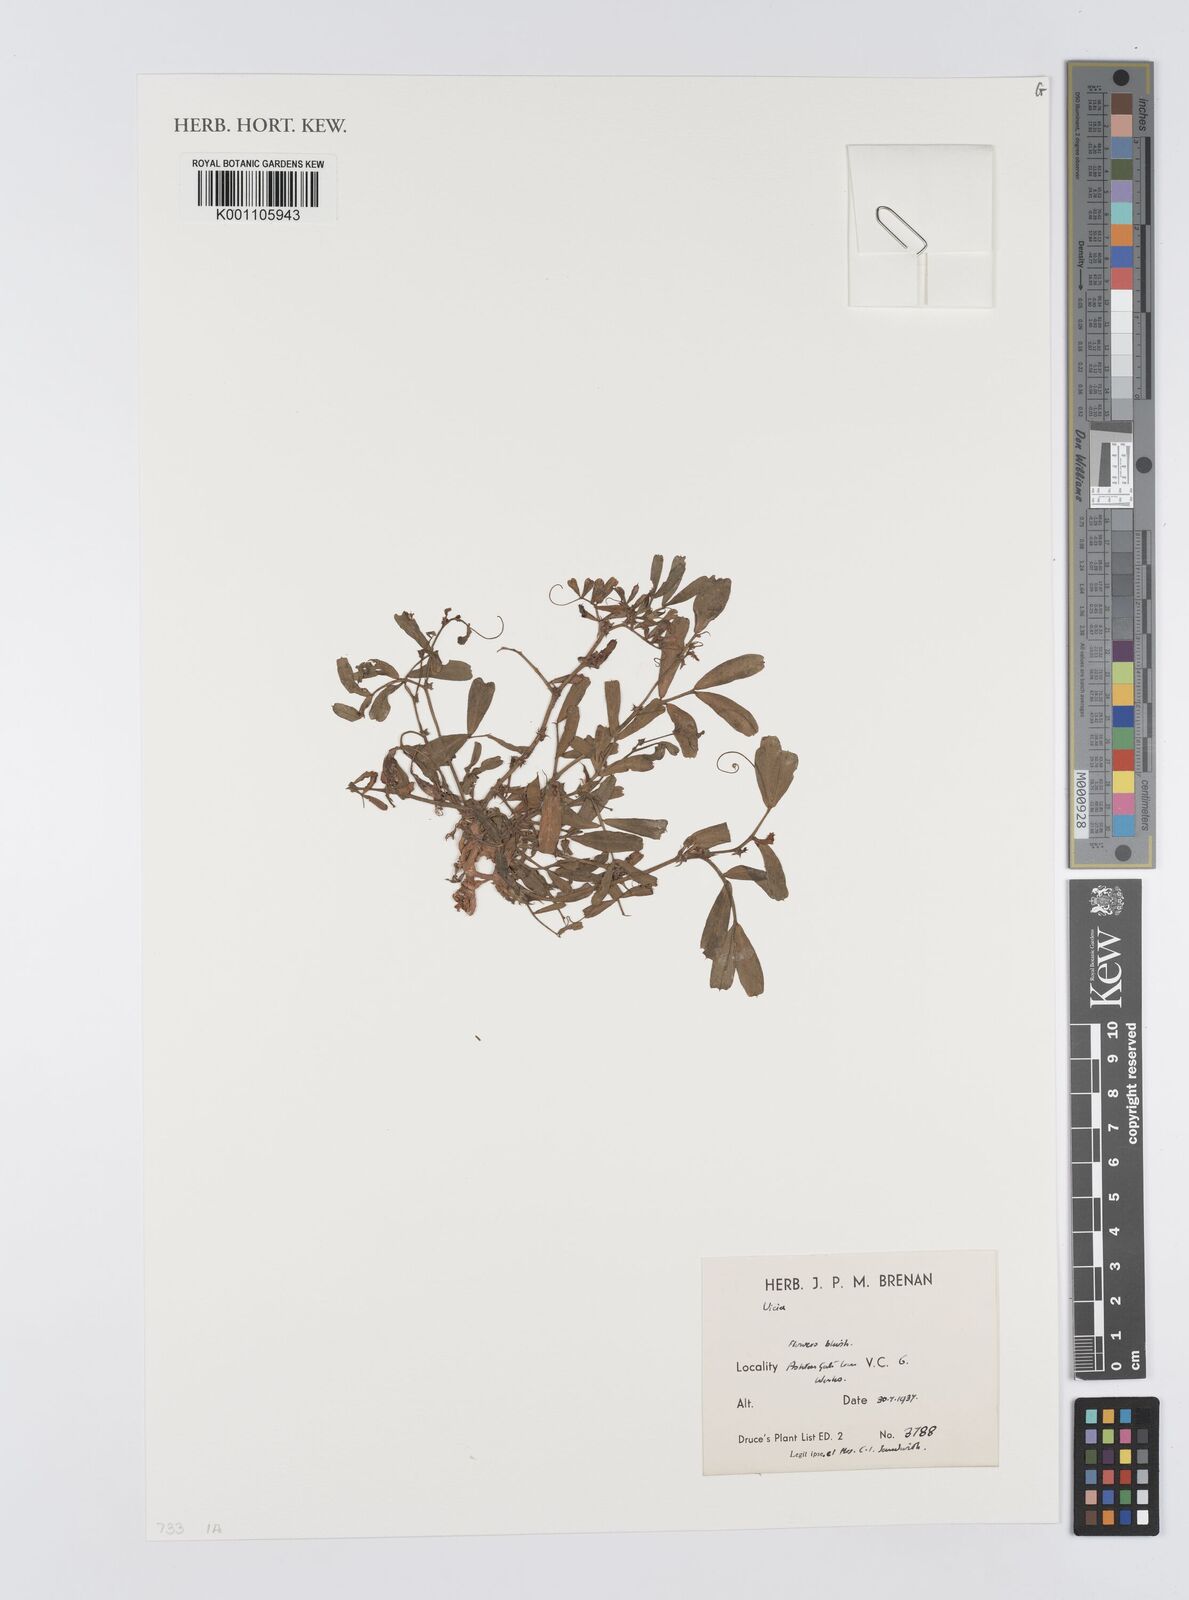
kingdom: Plantae
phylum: Tracheophyta
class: Magnoliopsida
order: Fabales
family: Fabaceae
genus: Vicia
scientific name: Vicia
